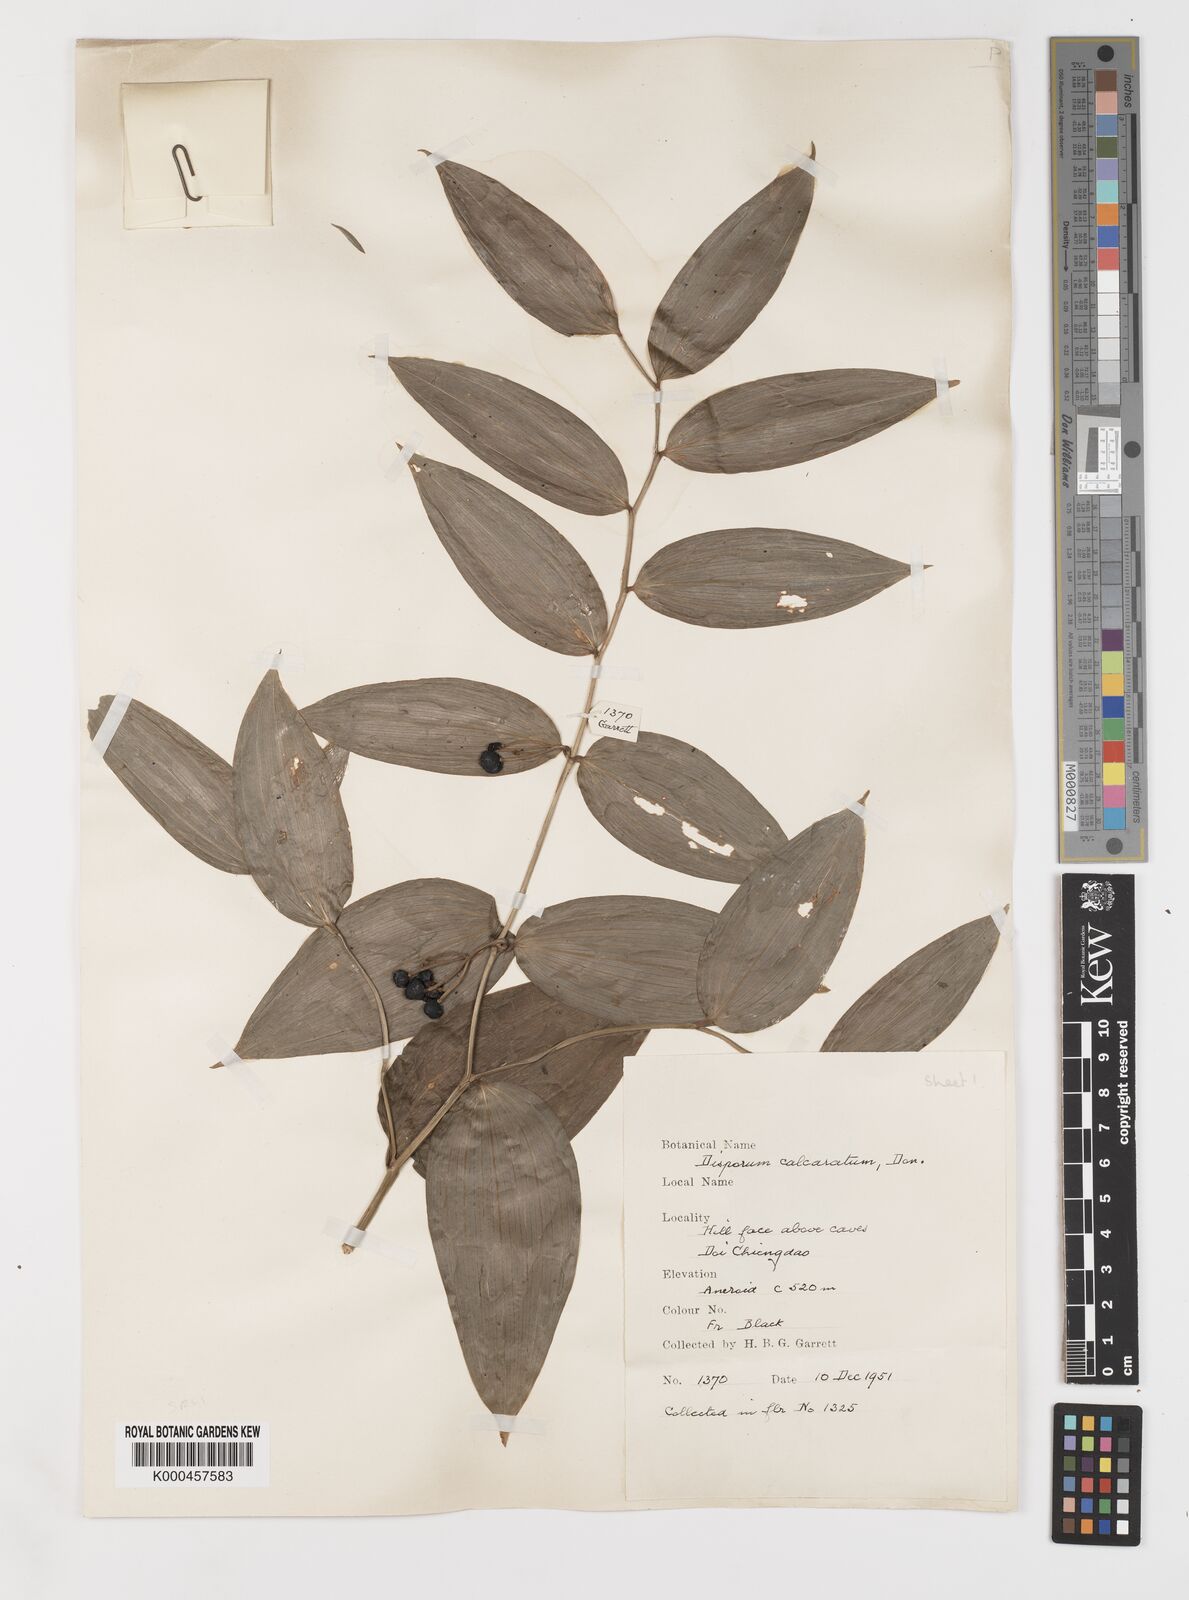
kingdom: Plantae
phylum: Tracheophyta
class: Liliopsida
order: Liliales
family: Colchicaceae
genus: Disporum
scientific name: Disporum calcaratum
